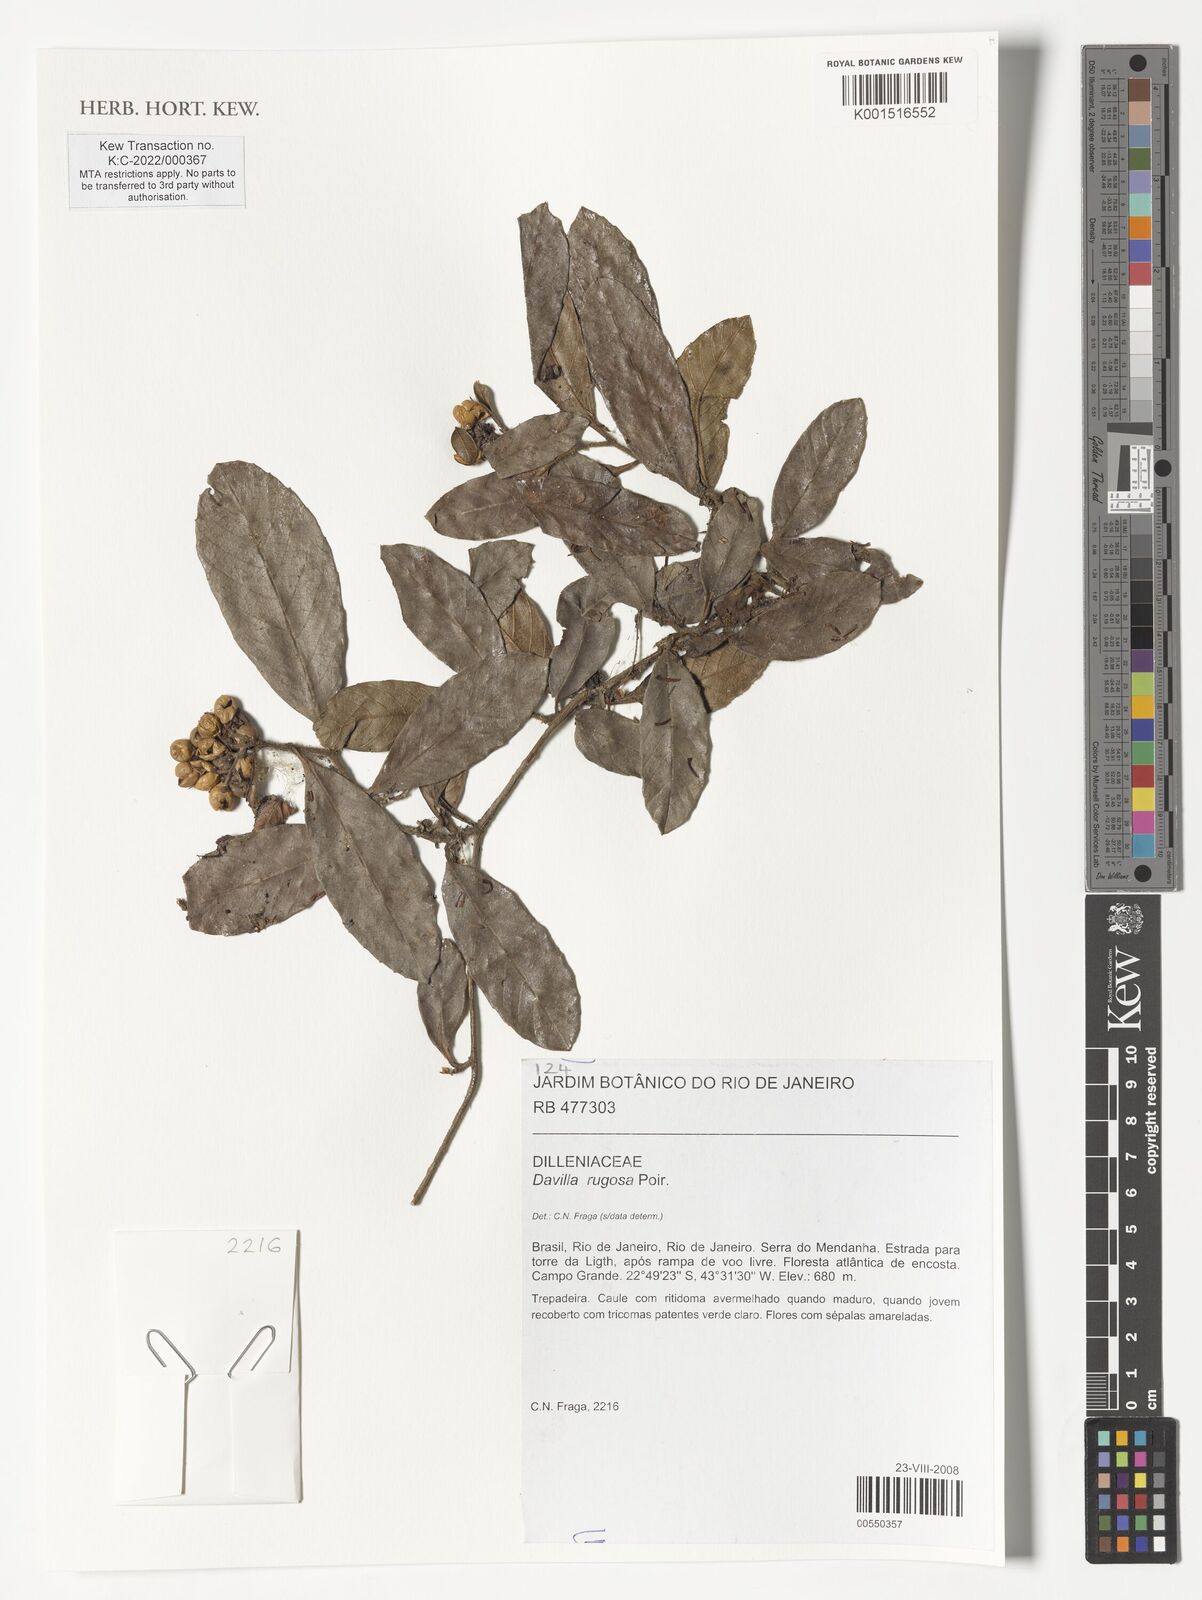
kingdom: Plantae
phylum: Tracheophyta
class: Magnoliopsida
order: Dilleniales
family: Dilleniaceae
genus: Davilla
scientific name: Davilla rugosa
